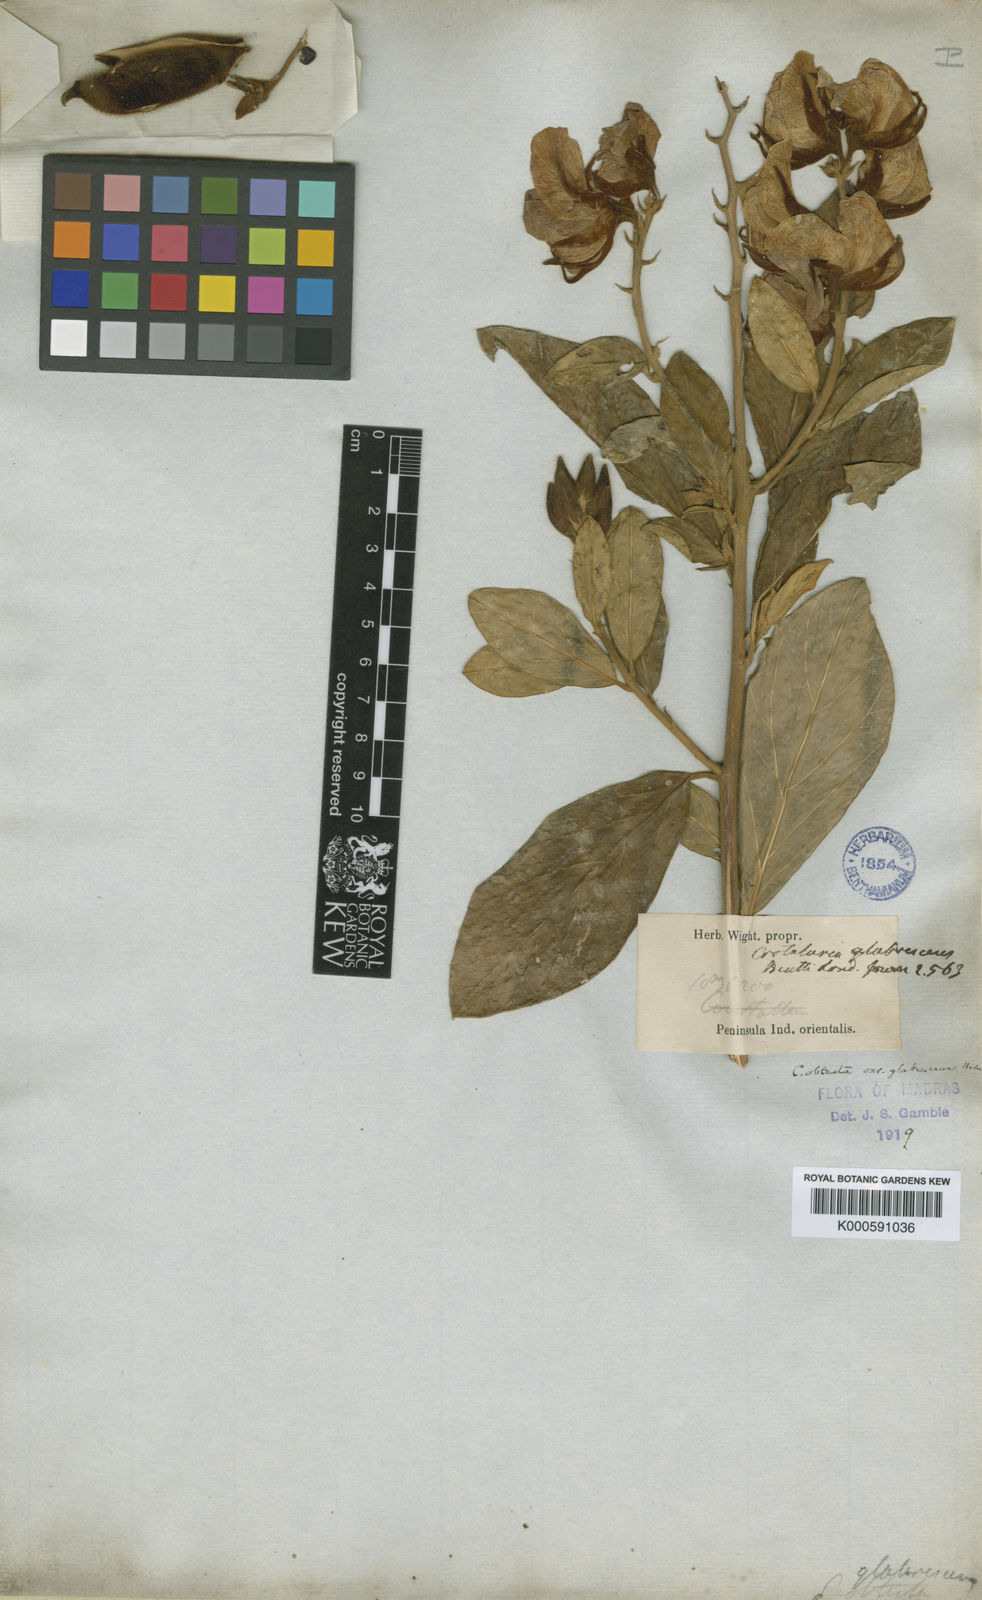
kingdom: Plantae
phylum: Tracheophyta
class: Magnoliopsida
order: Fabales
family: Fabaceae
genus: Crotalaria
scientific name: Crotalaria obtecta
